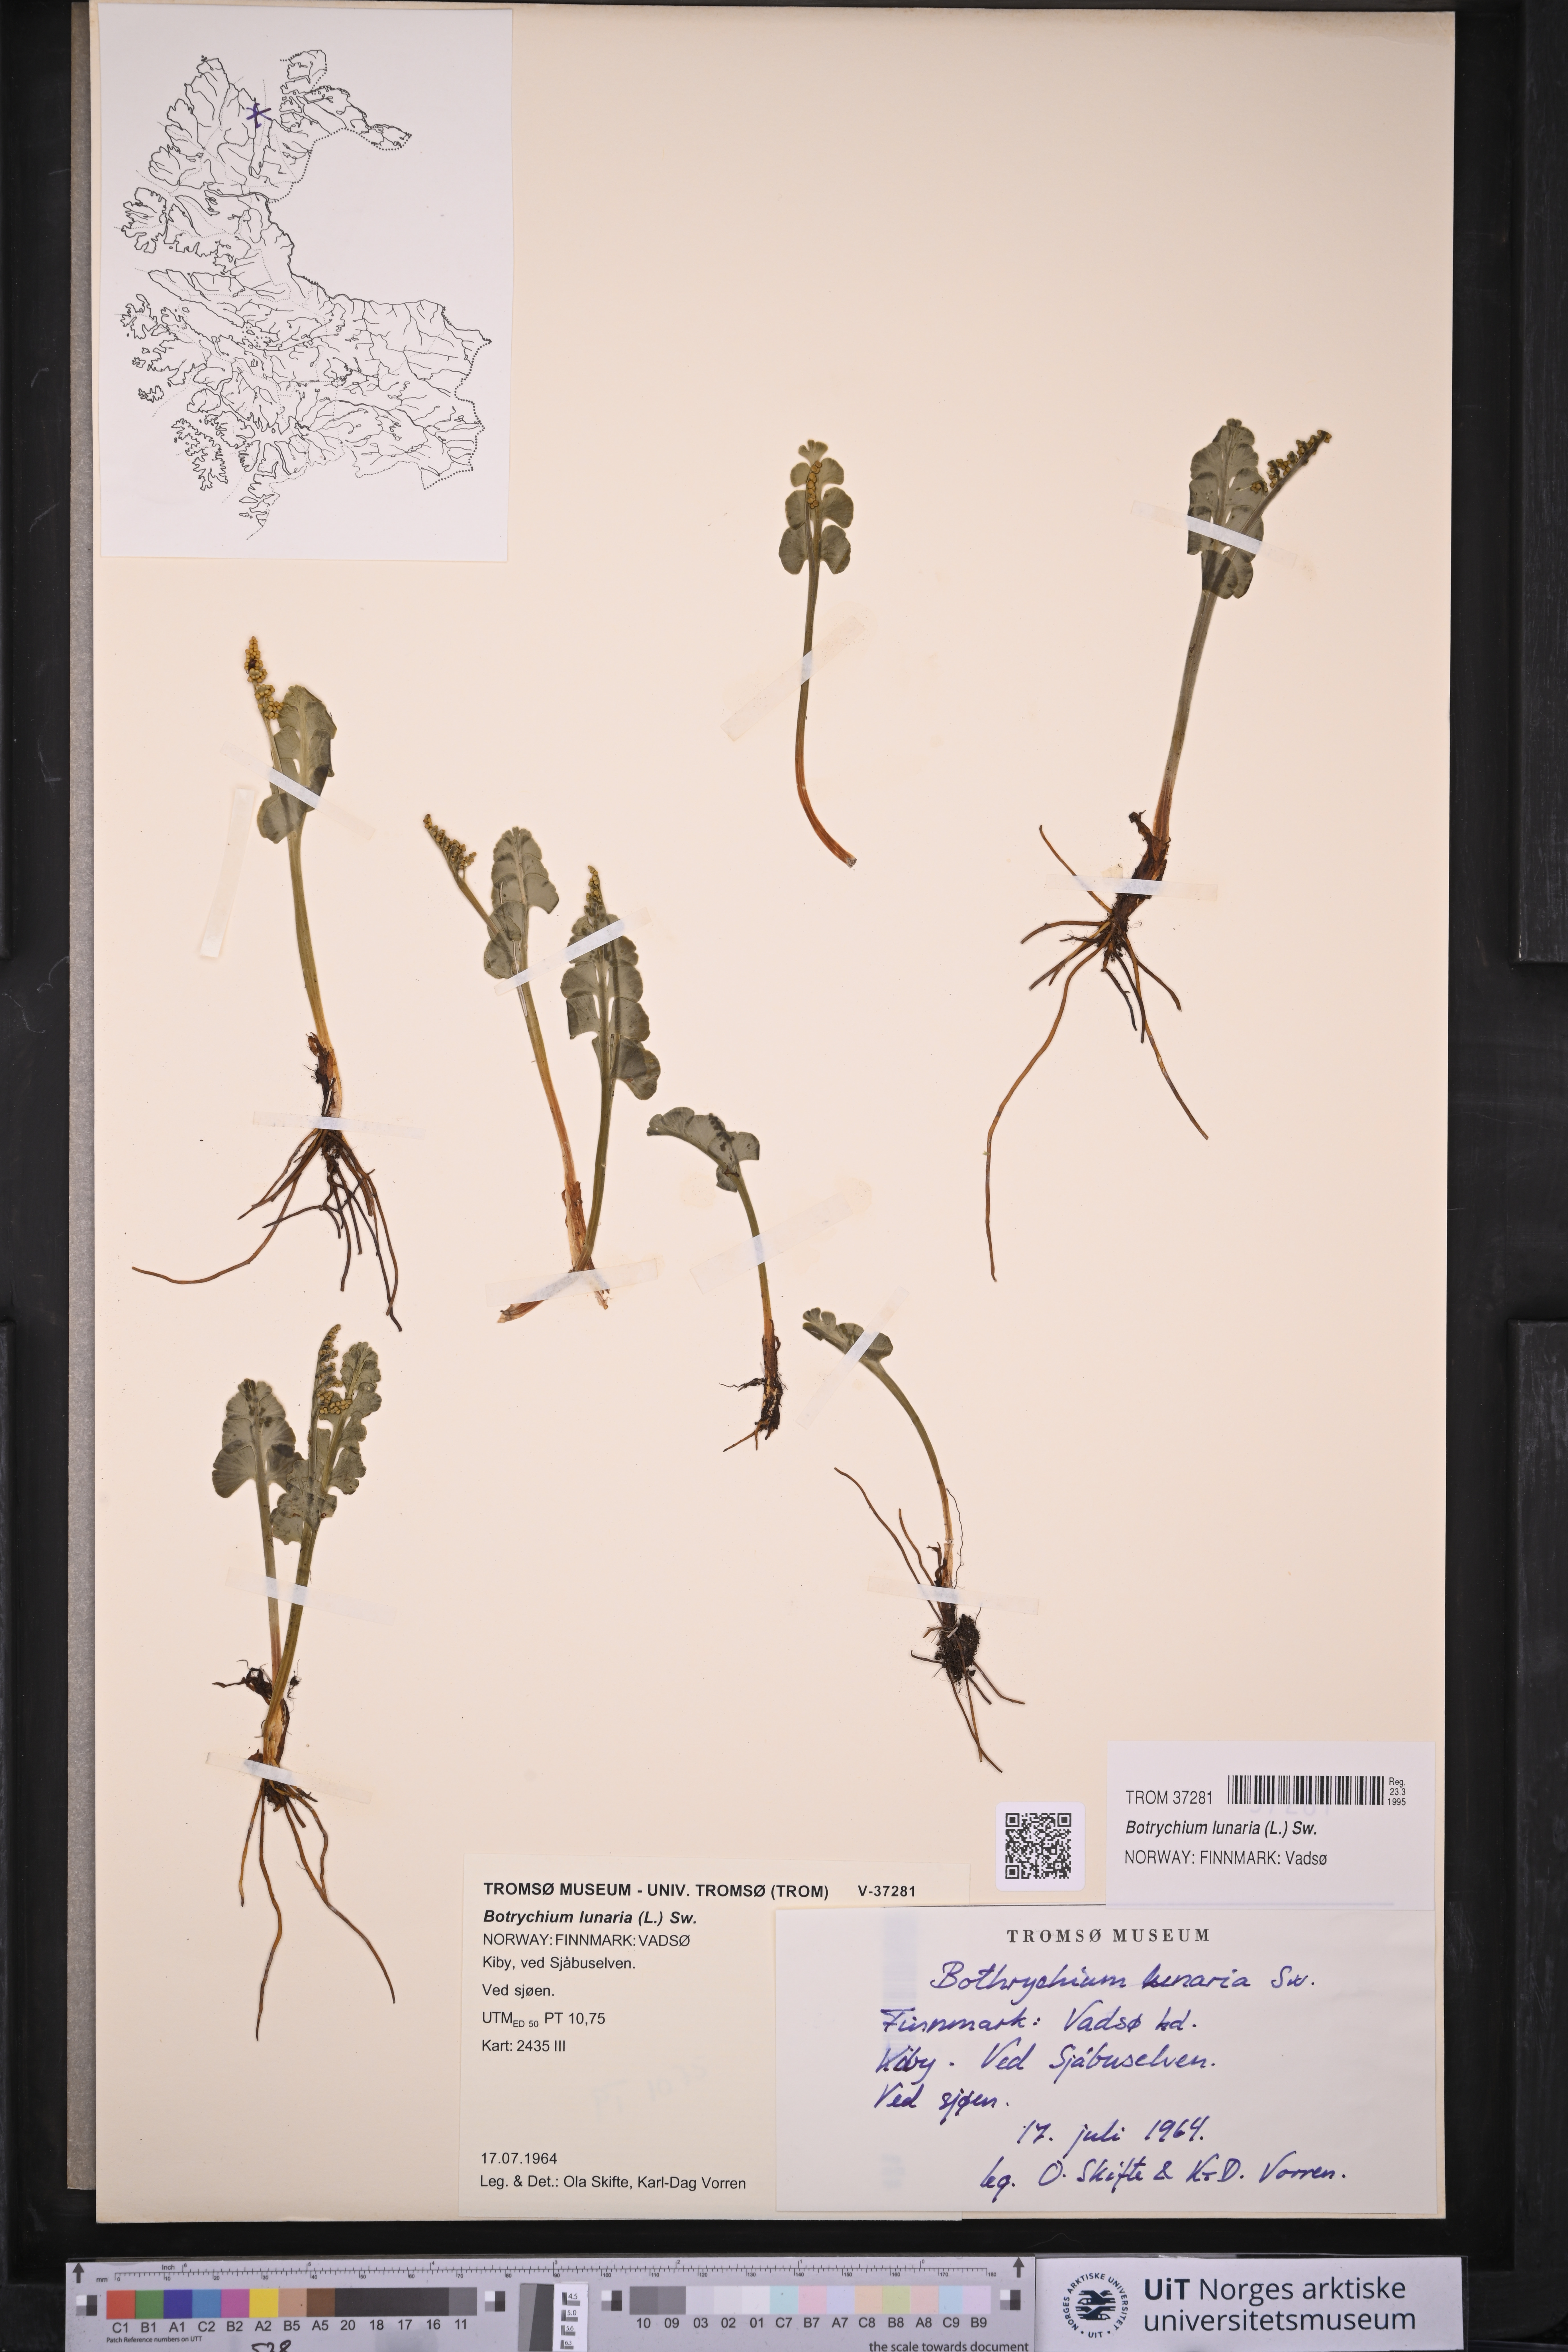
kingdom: Plantae
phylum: Tracheophyta
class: Polypodiopsida
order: Ophioglossales
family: Ophioglossaceae
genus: Botrychium
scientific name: Botrychium lunaria
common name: Moonwort
